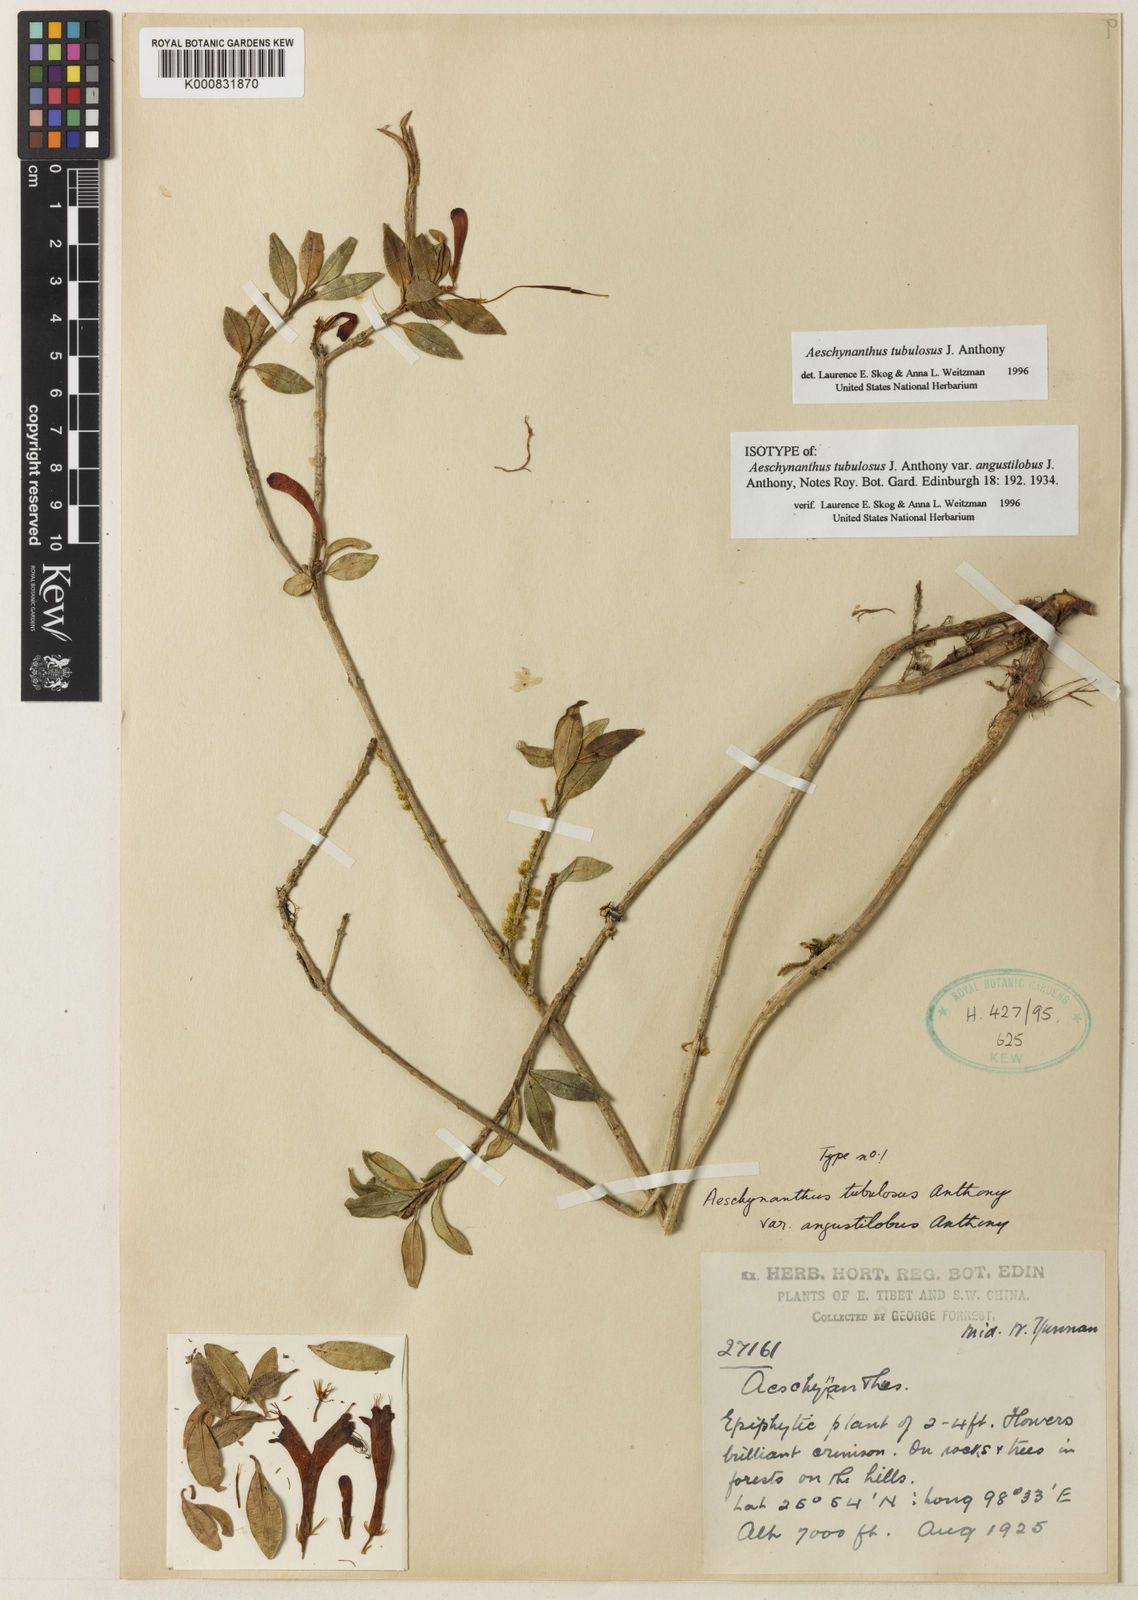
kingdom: Plantae
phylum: Tracheophyta
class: Magnoliopsida
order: Lamiales
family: Gesneriaceae
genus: Aeschynanthus
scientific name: Aeschynanthus tubulosus
